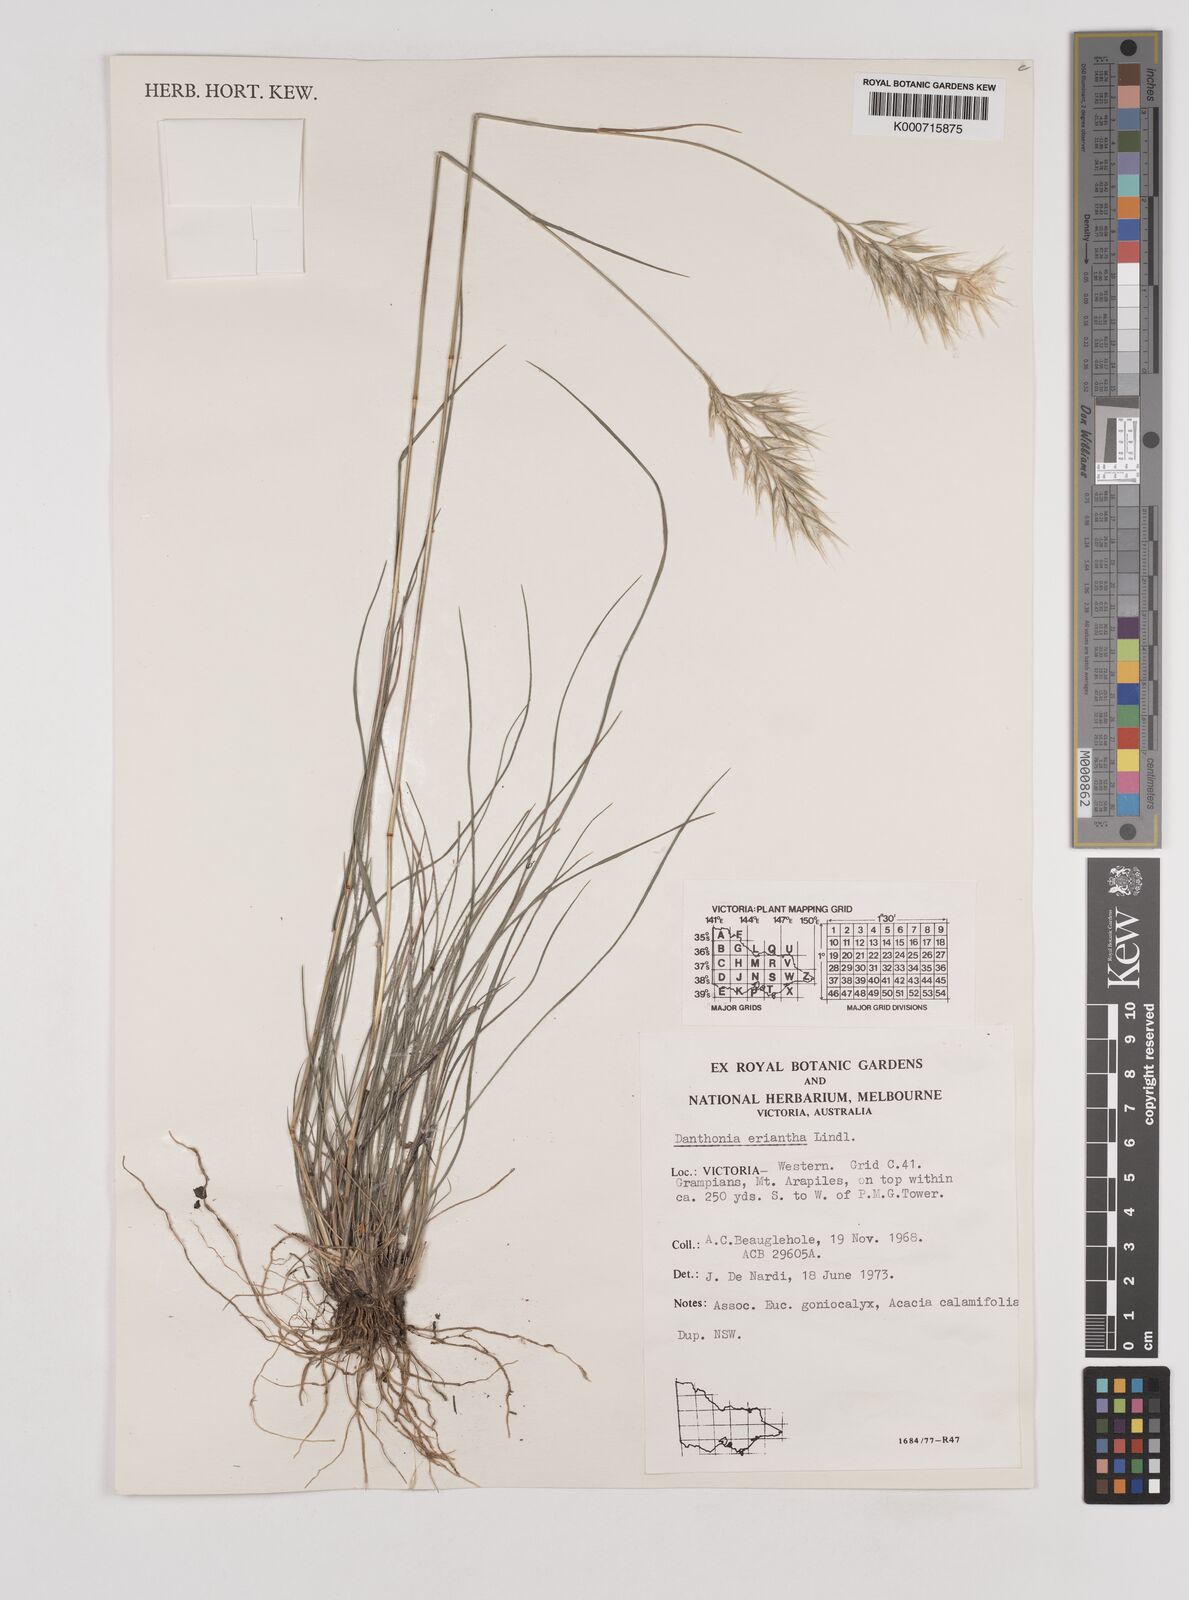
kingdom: Plantae
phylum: Tracheophyta
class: Liliopsida
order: Poales
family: Poaceae
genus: Rytidosperma
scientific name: Rytidosperma erianthum
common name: Hill wallaby grass
